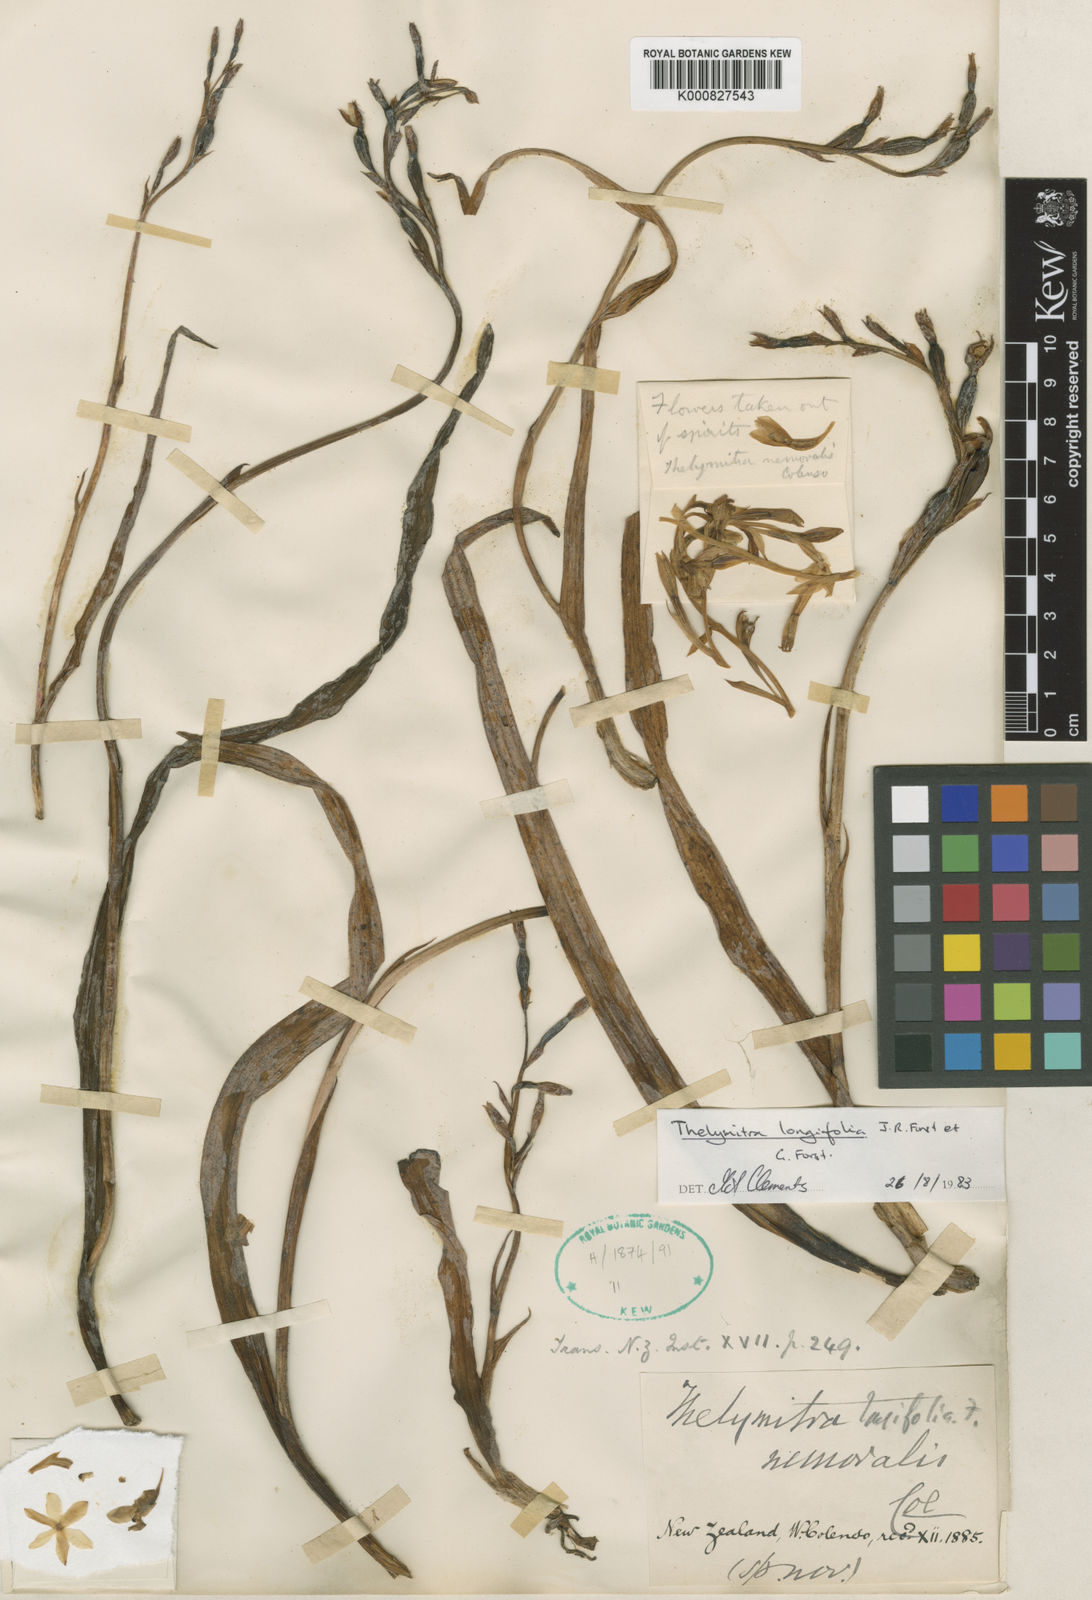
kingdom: Plantae
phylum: Tracheophyta
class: Liliopsida
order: Asparagales
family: Orchidaceae
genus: Thelymitra
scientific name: Thelymitra longifolia
